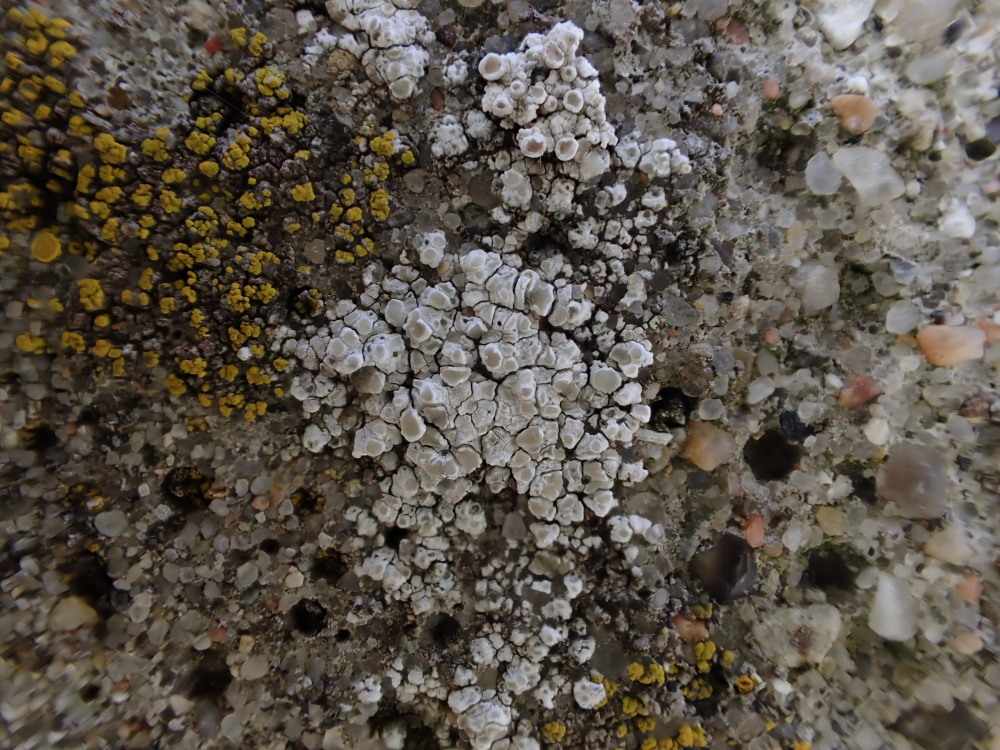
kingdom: Fungi
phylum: Ascomycota
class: Lecanoromycetes
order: Lecanorales
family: Lecanoraceae
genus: Polyozosia
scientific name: Polyozosia albescens
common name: cement-kantskivelav
